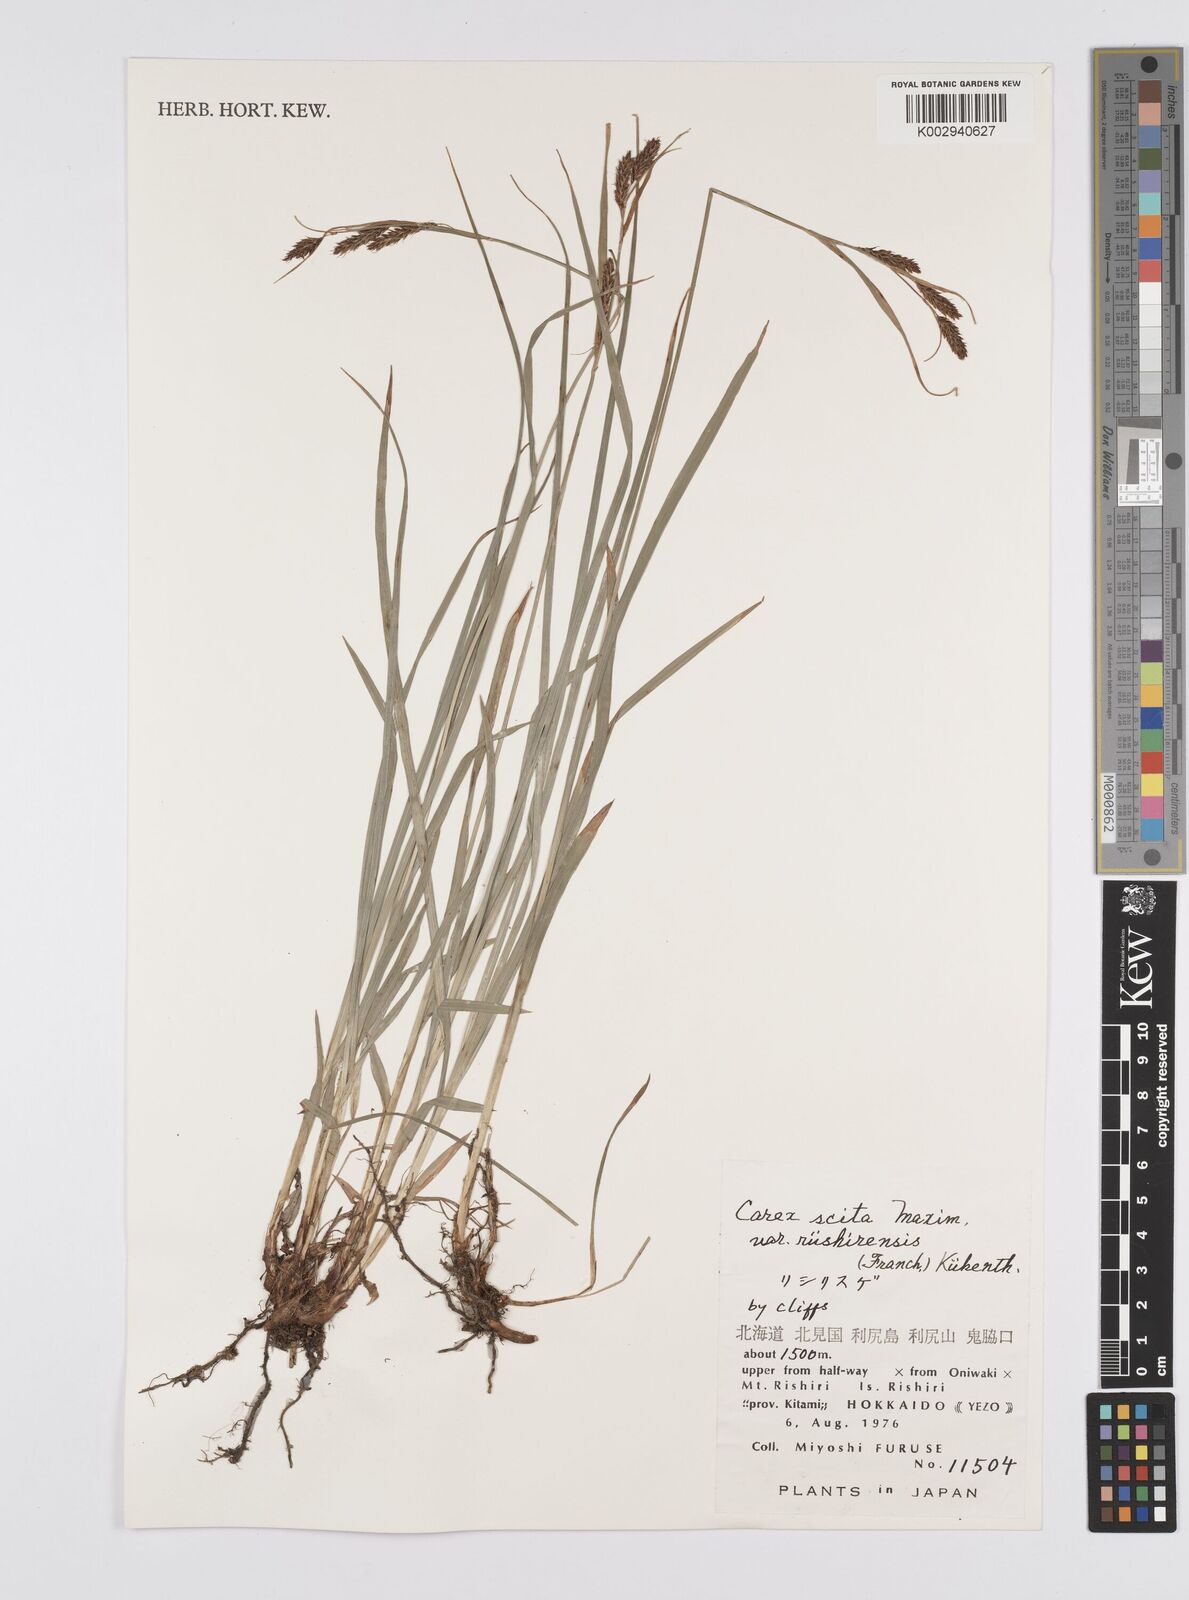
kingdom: Plantae
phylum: Tracheophyta
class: Liliopsida
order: Poales
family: Cyperaceae
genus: Carex
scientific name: Carex scita
